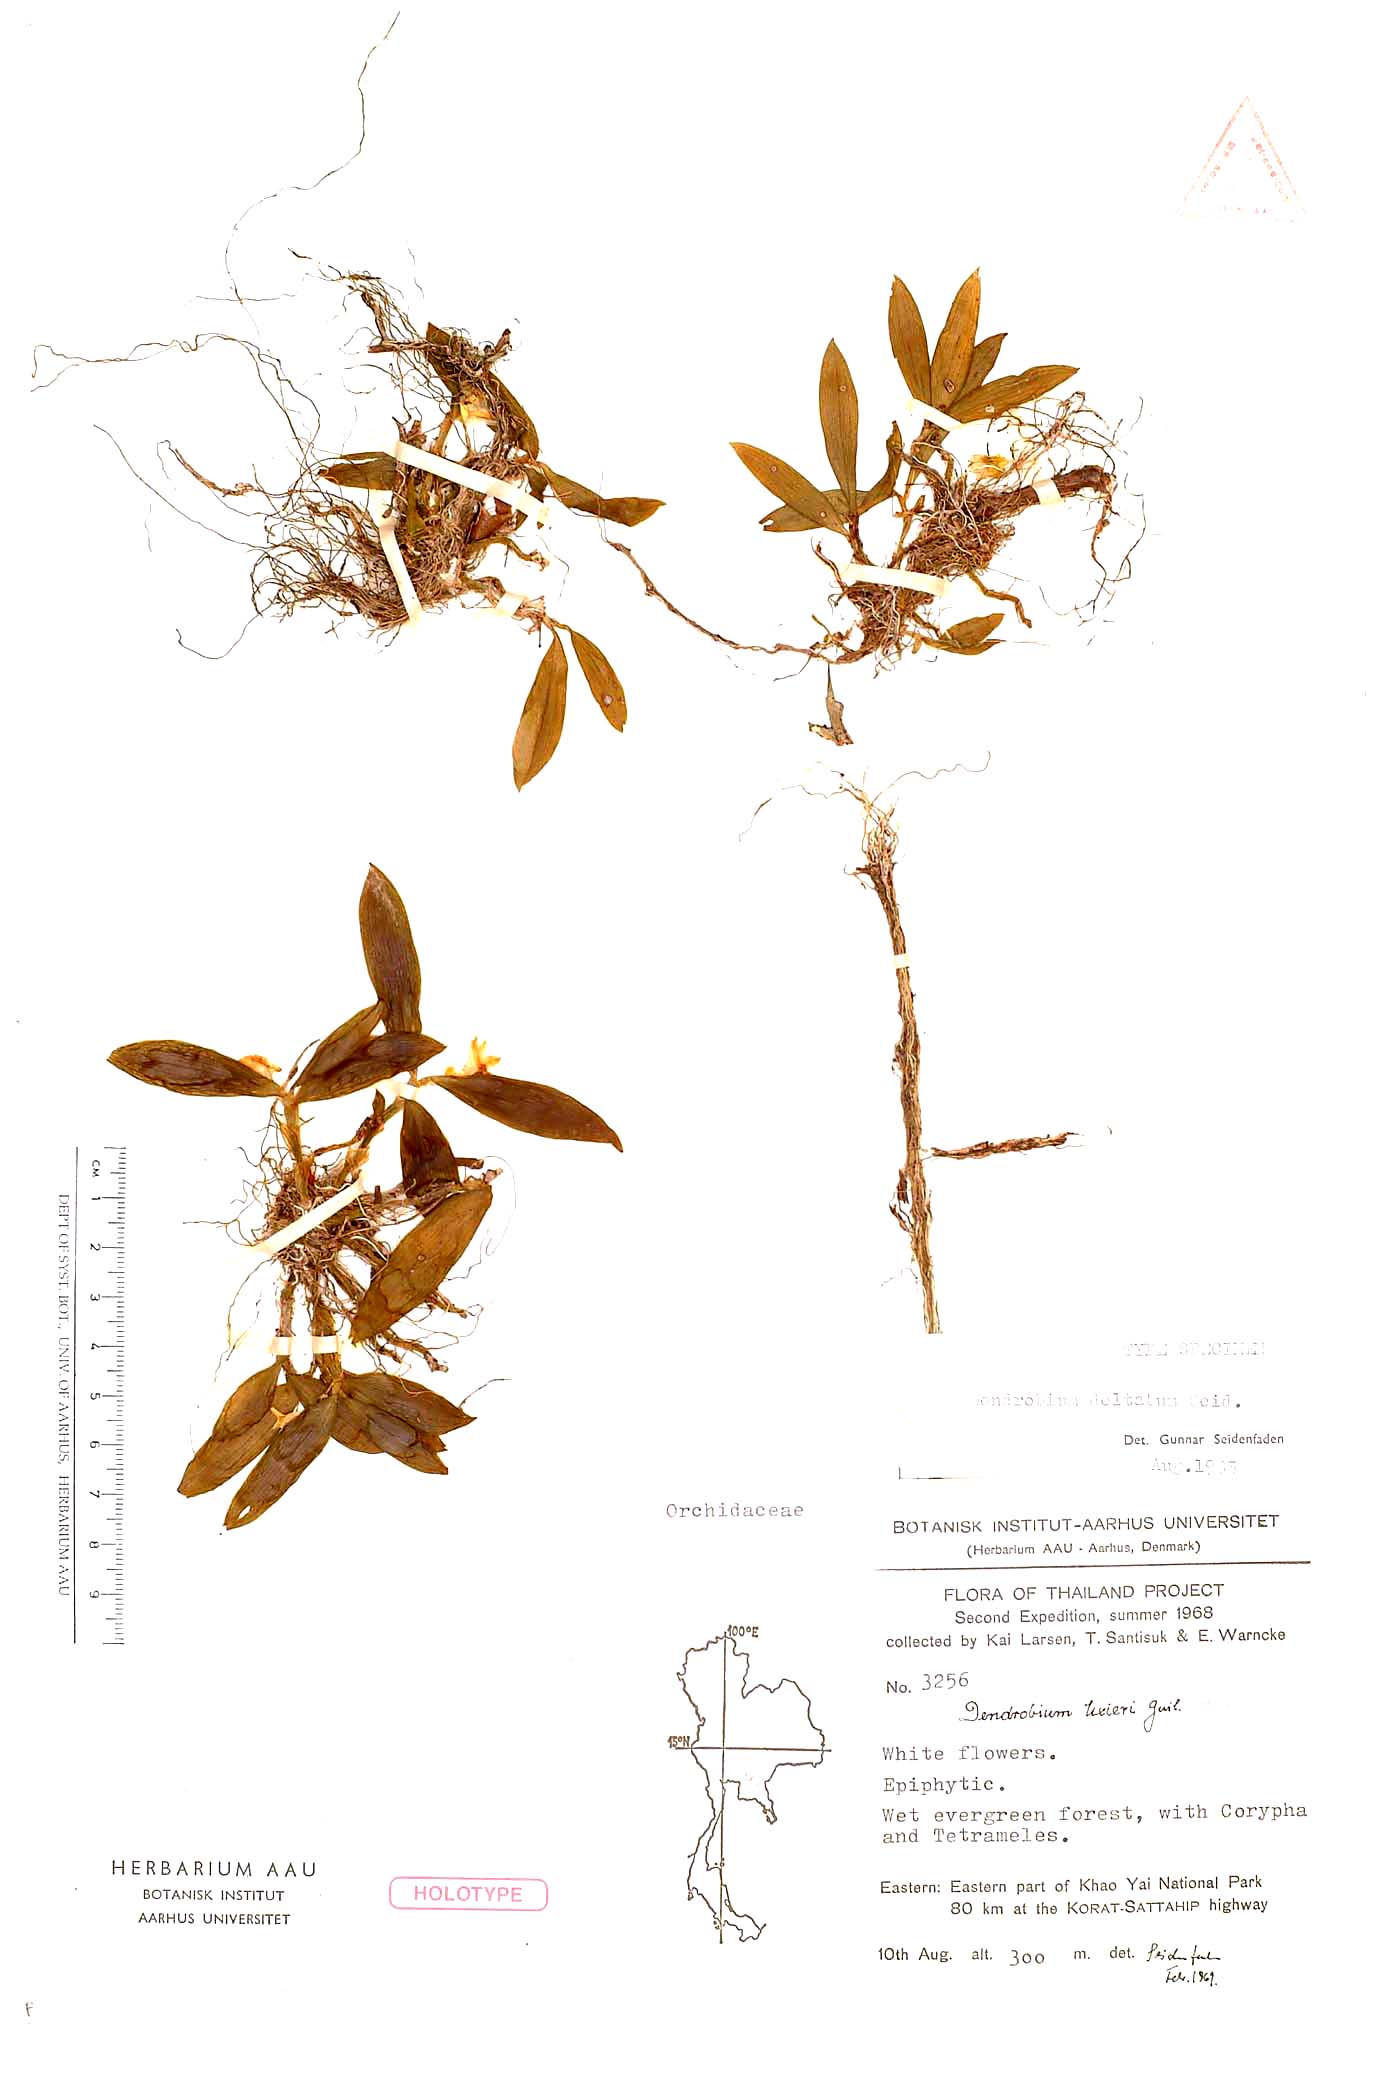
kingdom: Plantae
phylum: Tracheophyta
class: Liliopsida
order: Asparagales
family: Orchidaceae
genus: Dendrobium
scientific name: Dendrobium deltatum
